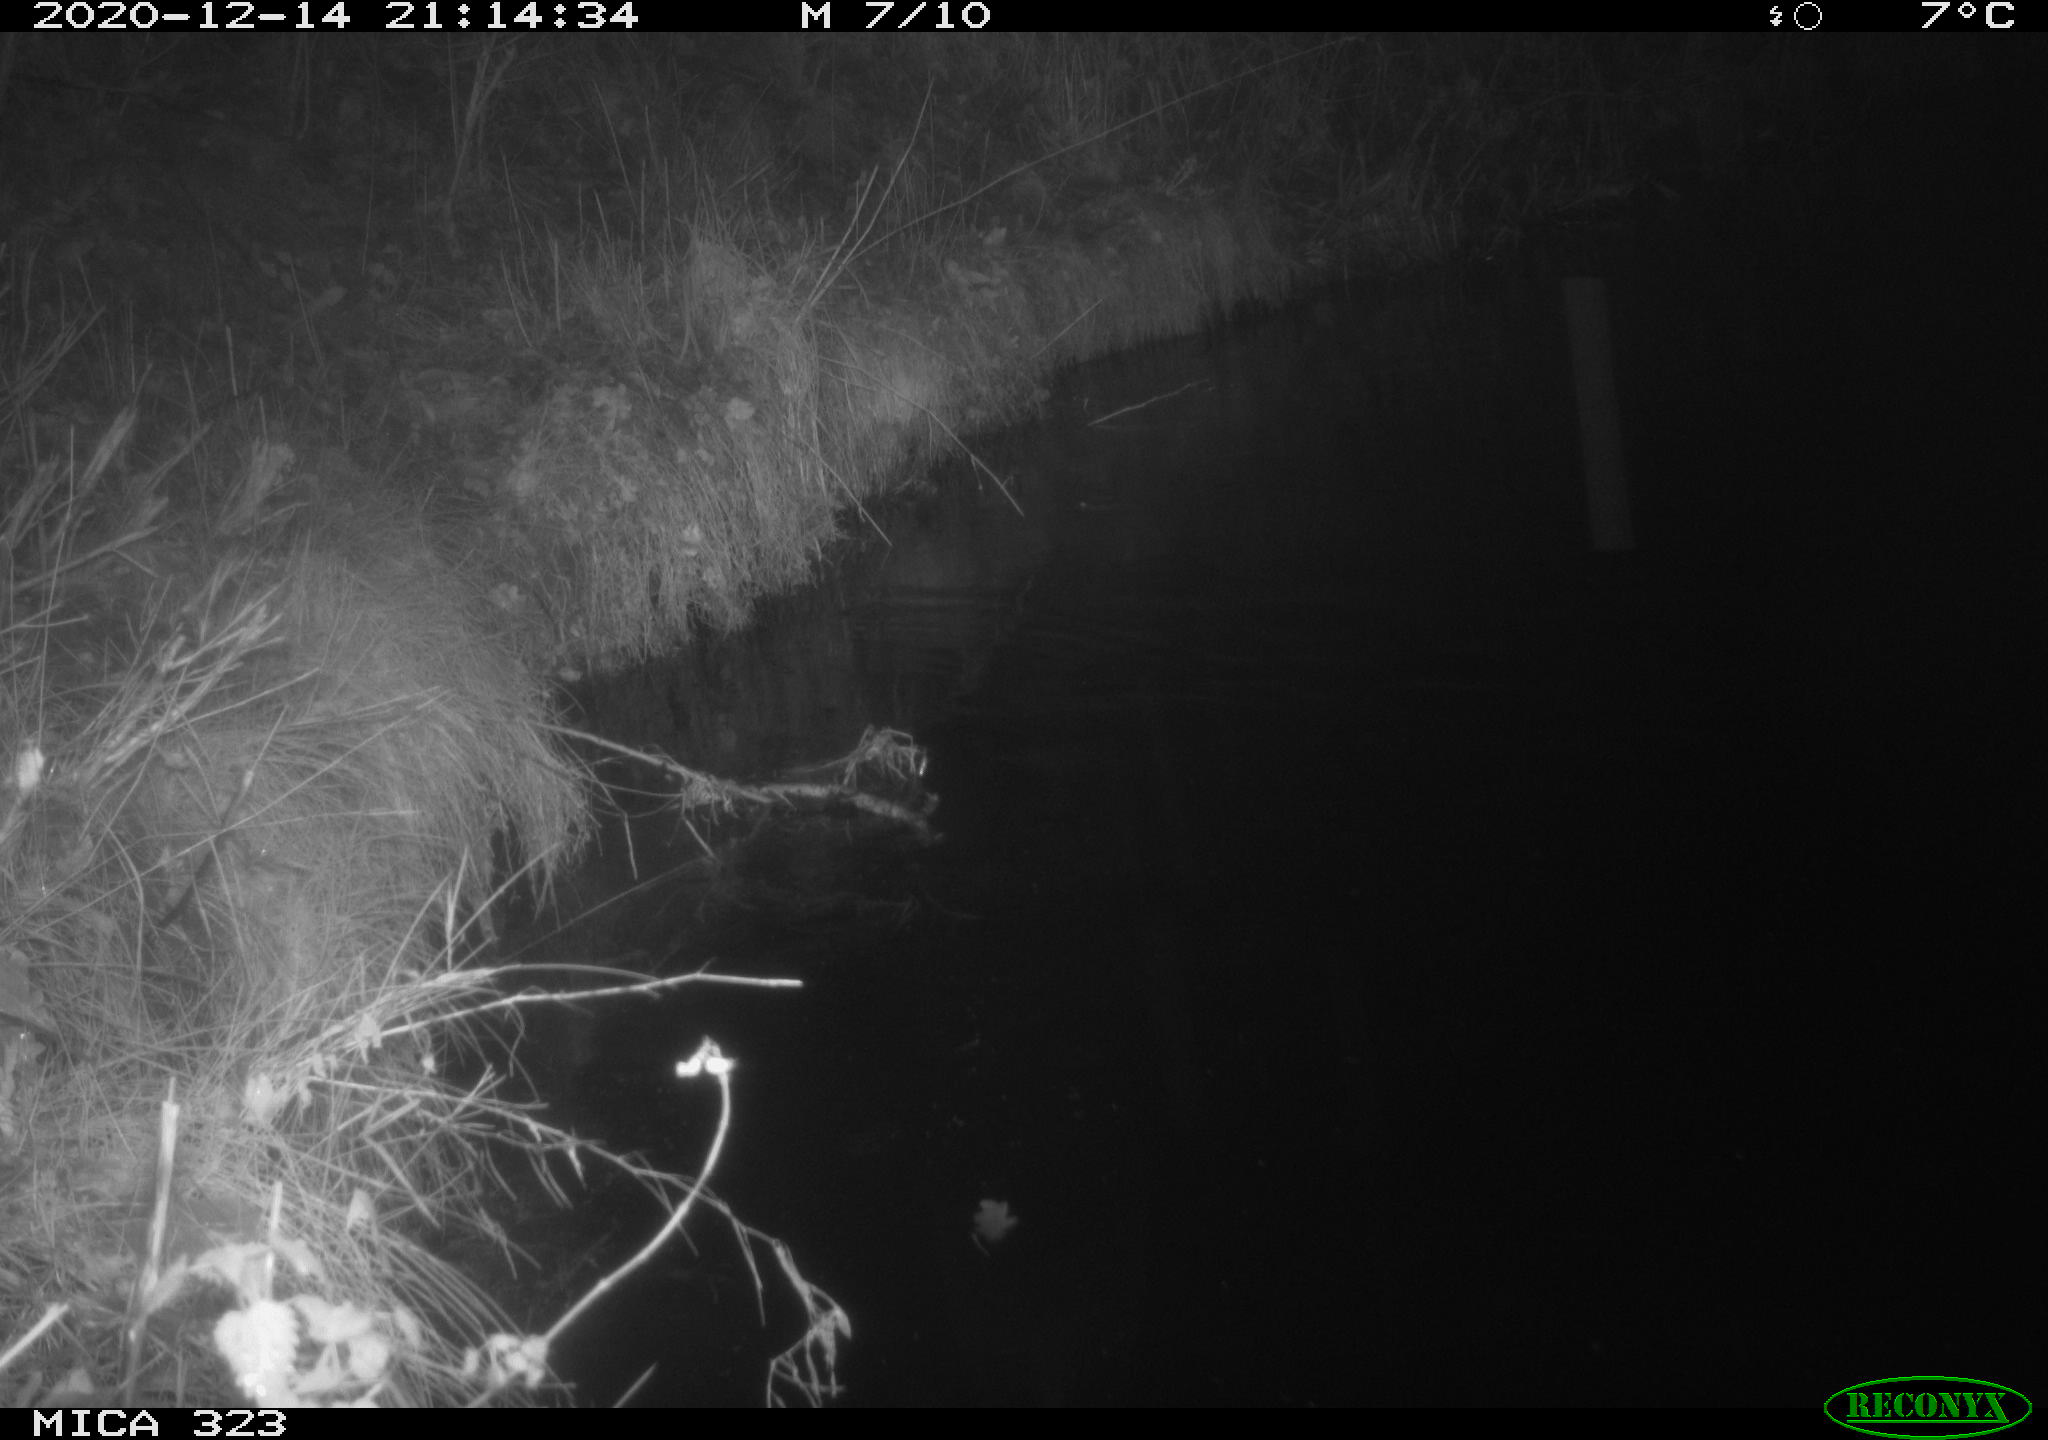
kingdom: Animalia
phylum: Chordata
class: Mammalia
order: Rodentia
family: Myocastoridae
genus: Myocastor
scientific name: Myocastor coypus
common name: Coypu
